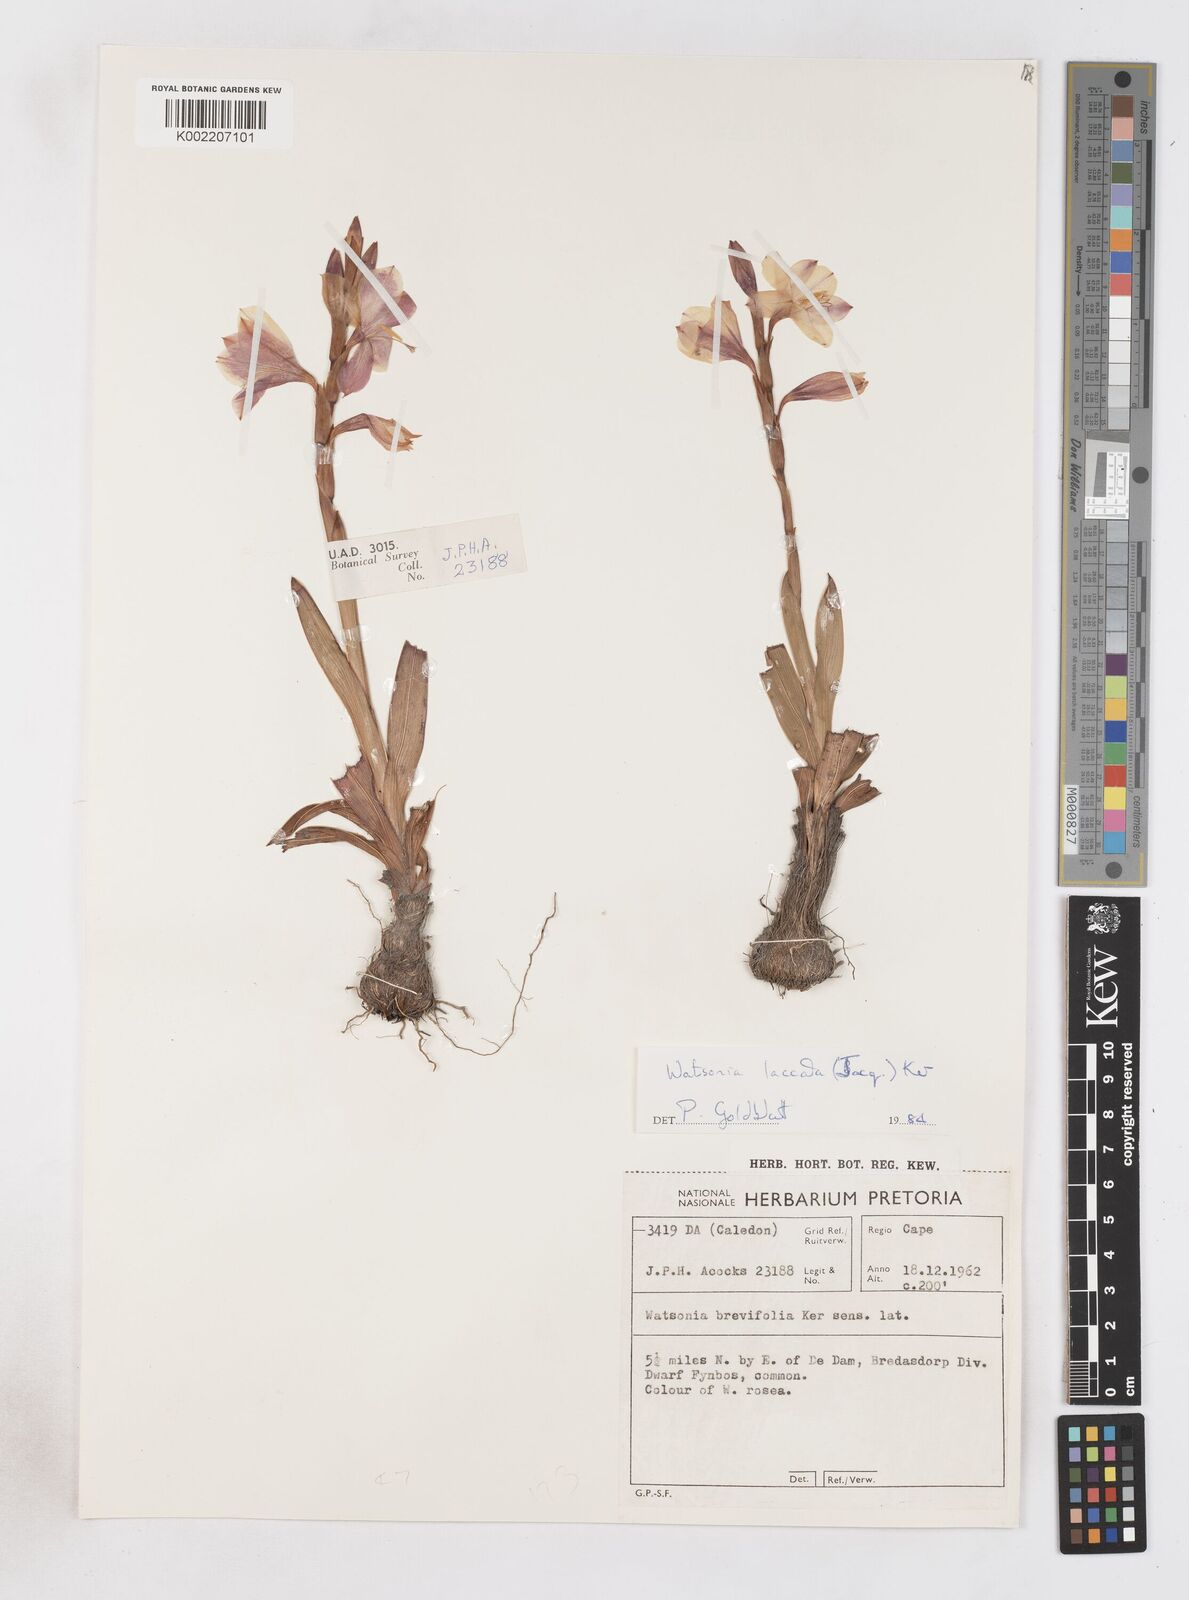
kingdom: Plantae
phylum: Tracheophyta
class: Liliopsida
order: Asparagales
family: Iridaceae
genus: Watsonia
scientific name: Watsonia laccata
